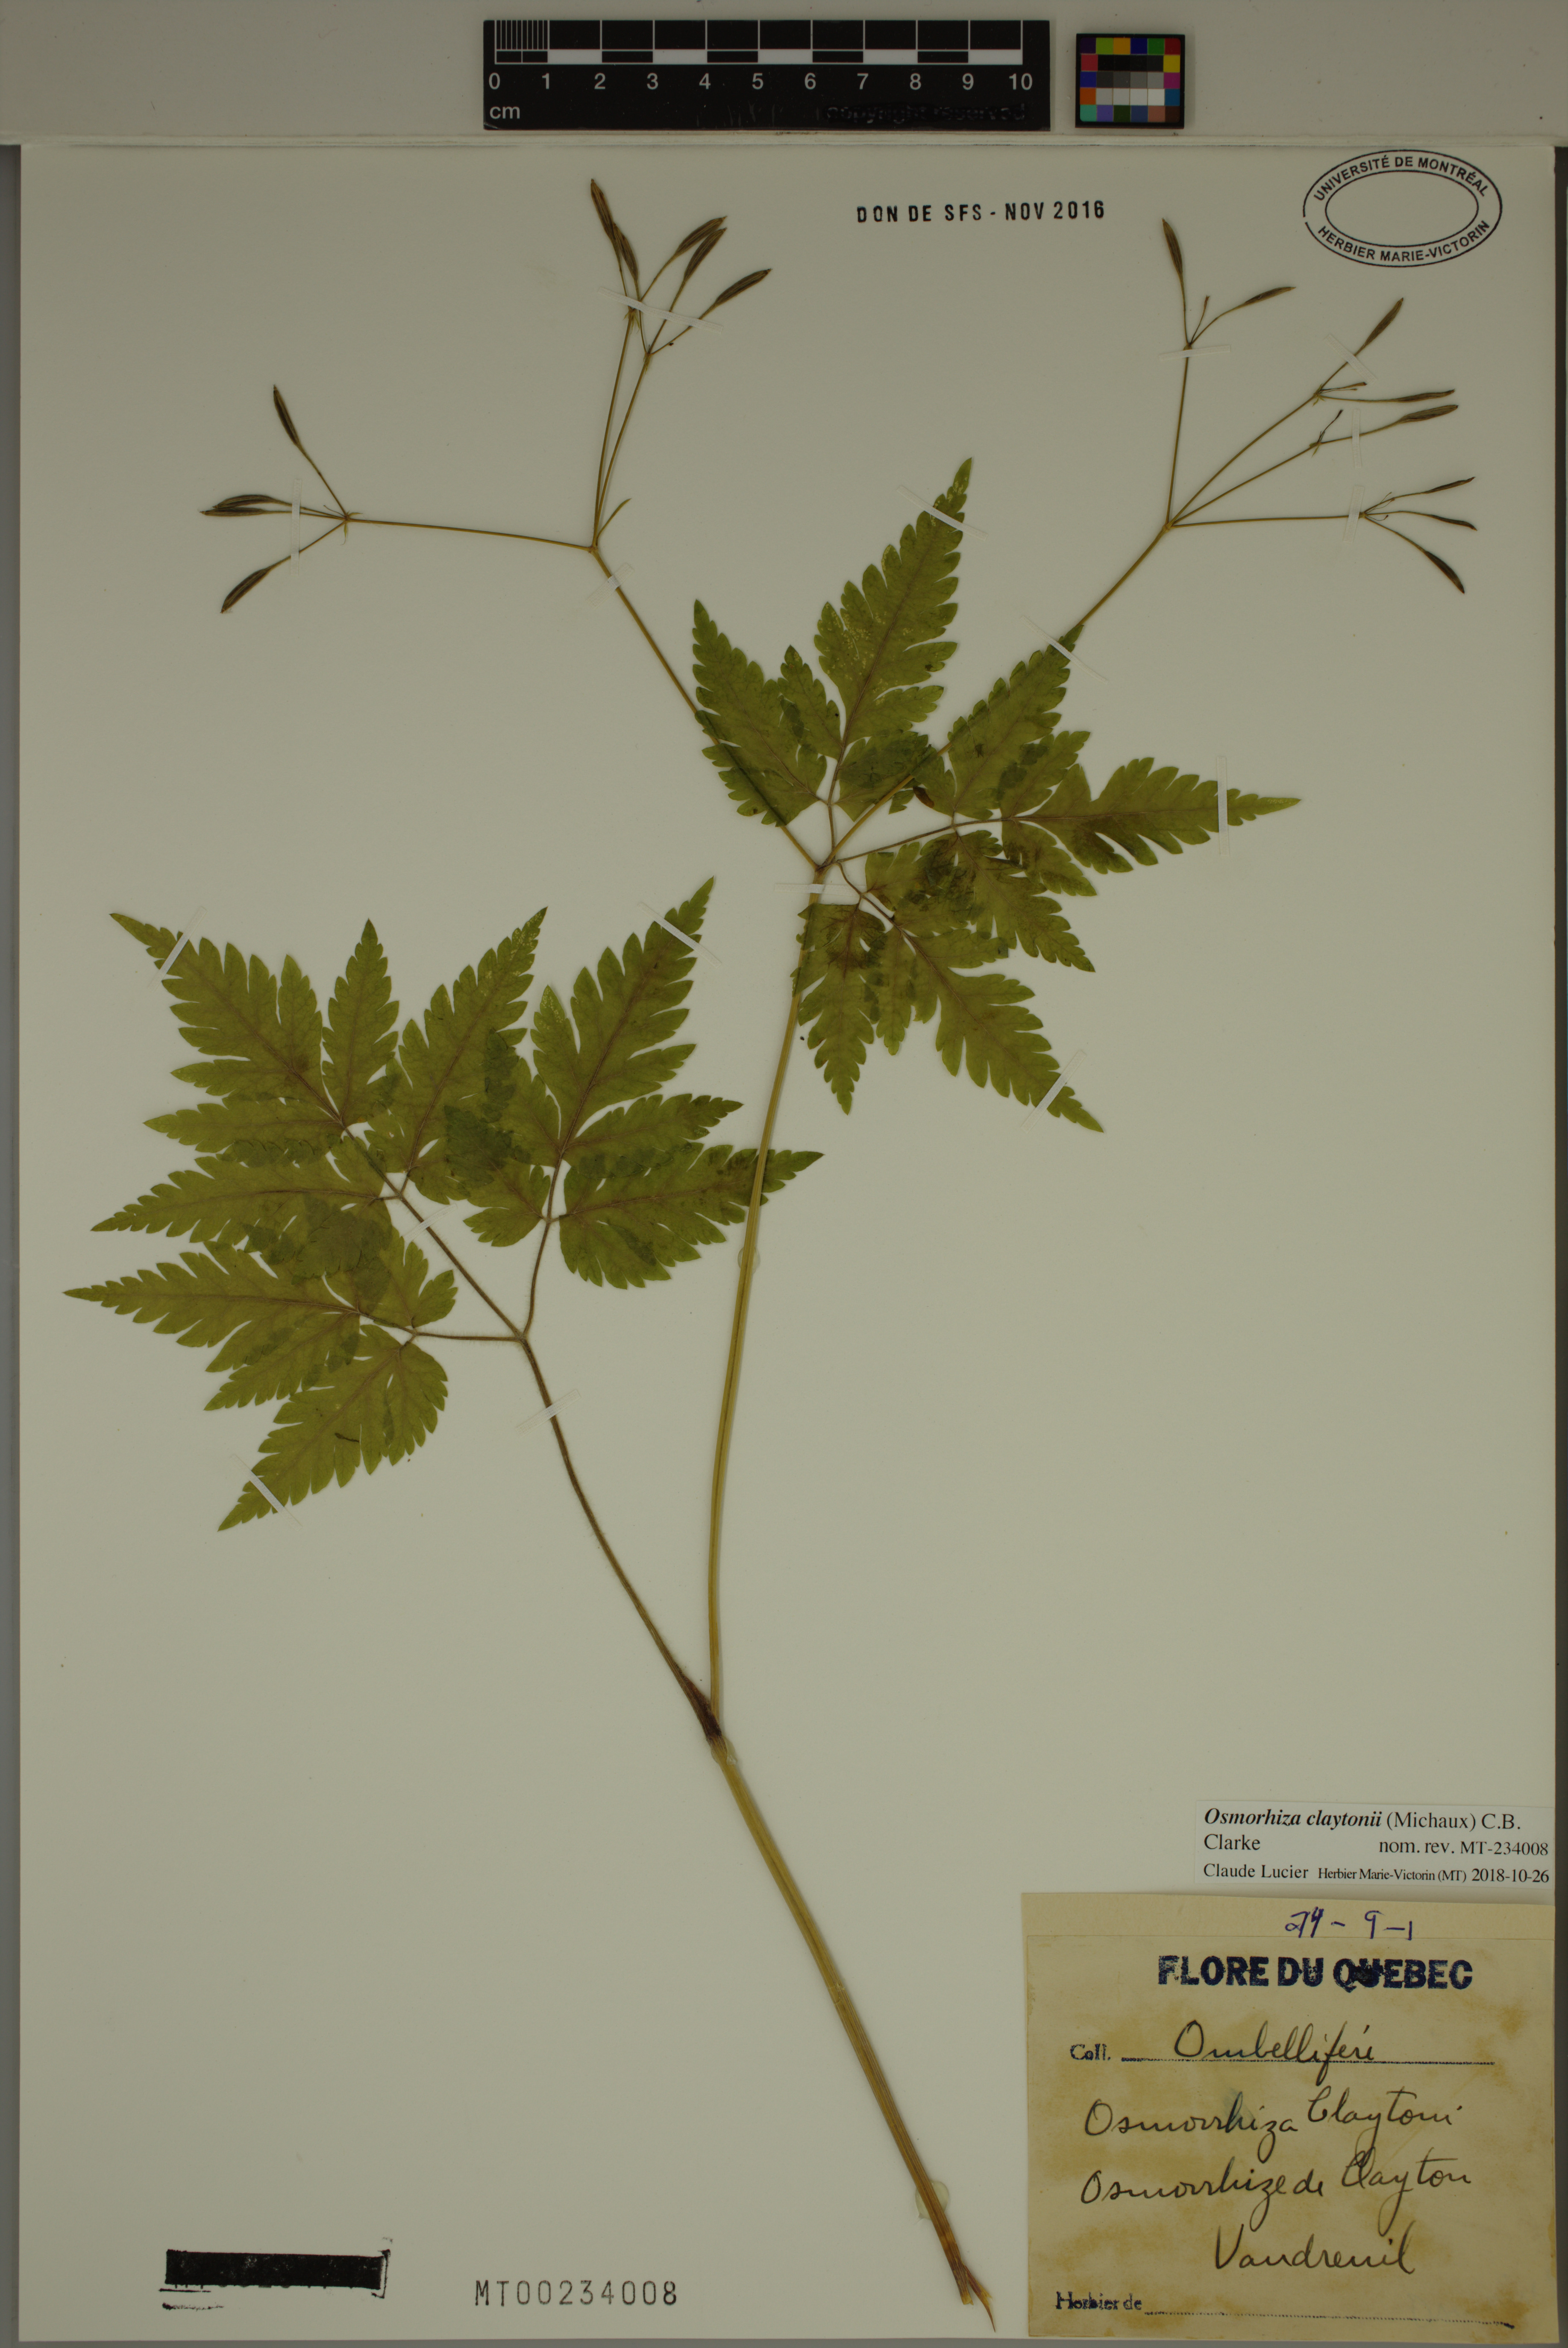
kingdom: Plantae
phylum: Tracheophyta
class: Magnoliopsida
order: Apiales
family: Apiaceae
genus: Osmorhiza
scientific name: Osmorhiza claytonii
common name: Hairy sweet cicely
